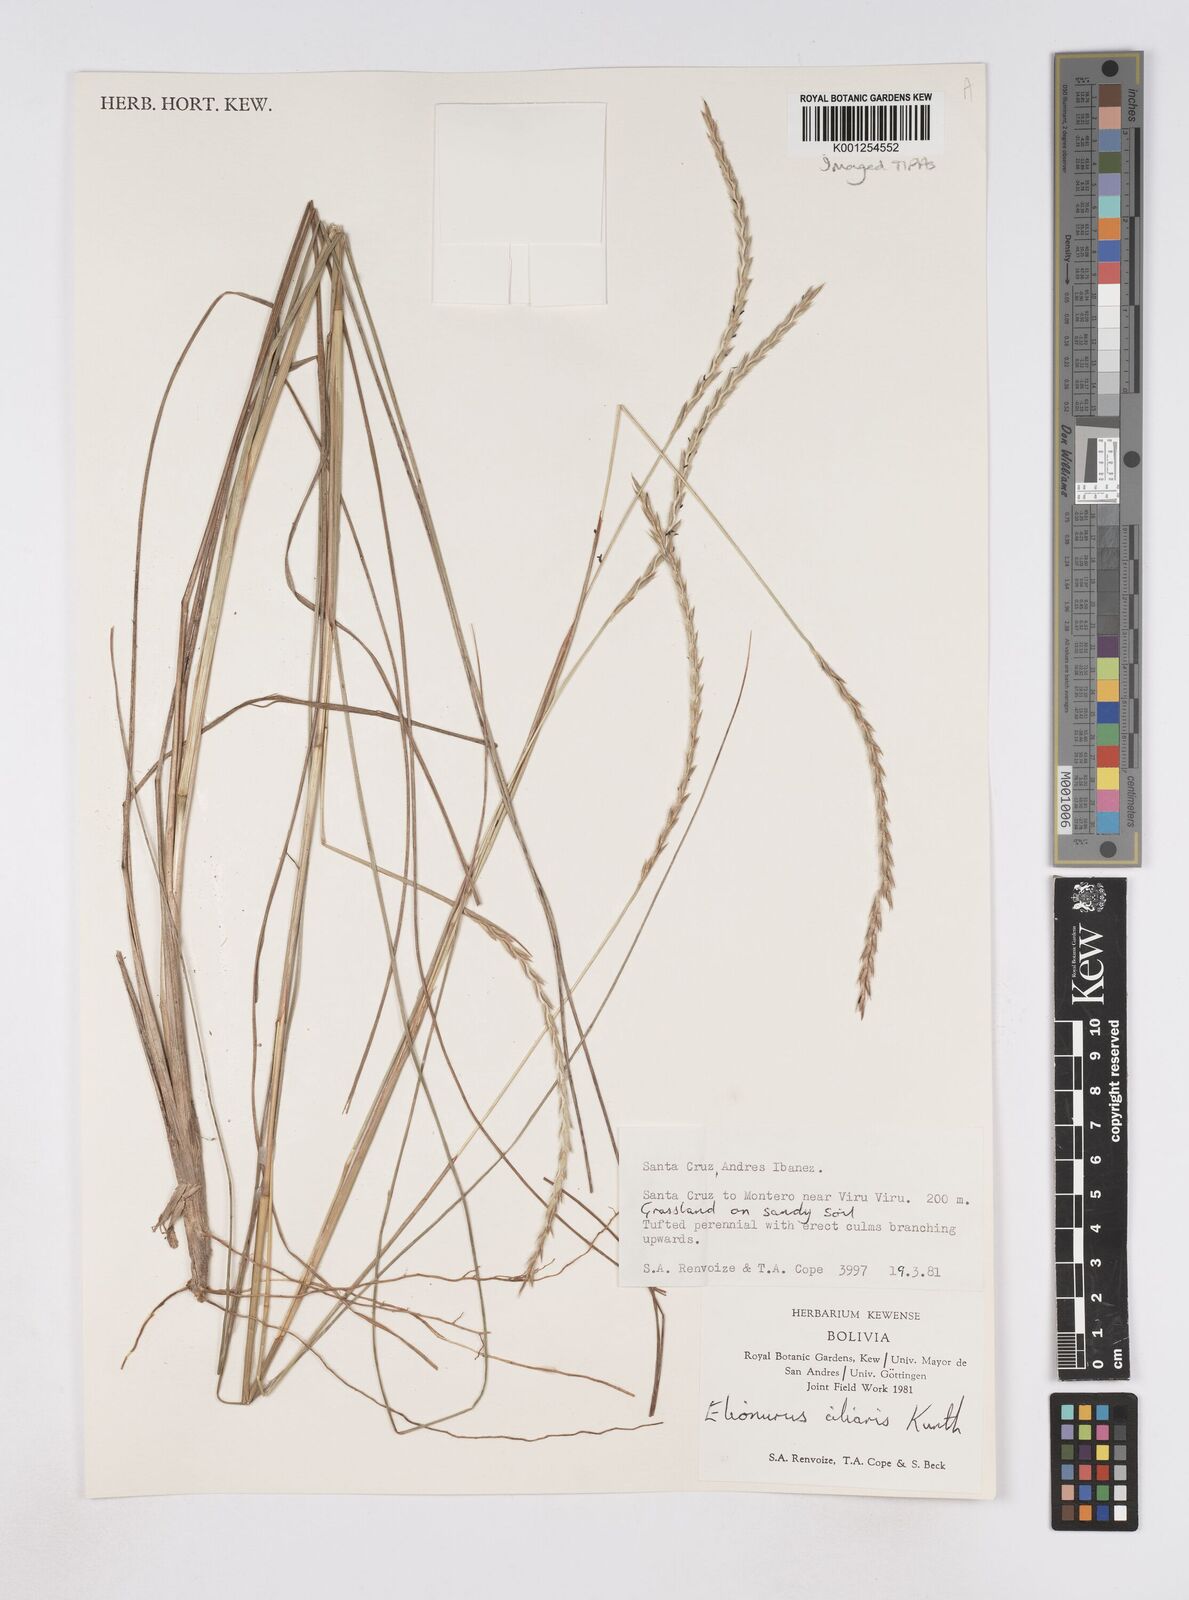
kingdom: Plantae
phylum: Tracheophyta
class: Liliopsida
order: Poales
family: Poaceae
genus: Elionurus
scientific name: Elionurus ciliaris
